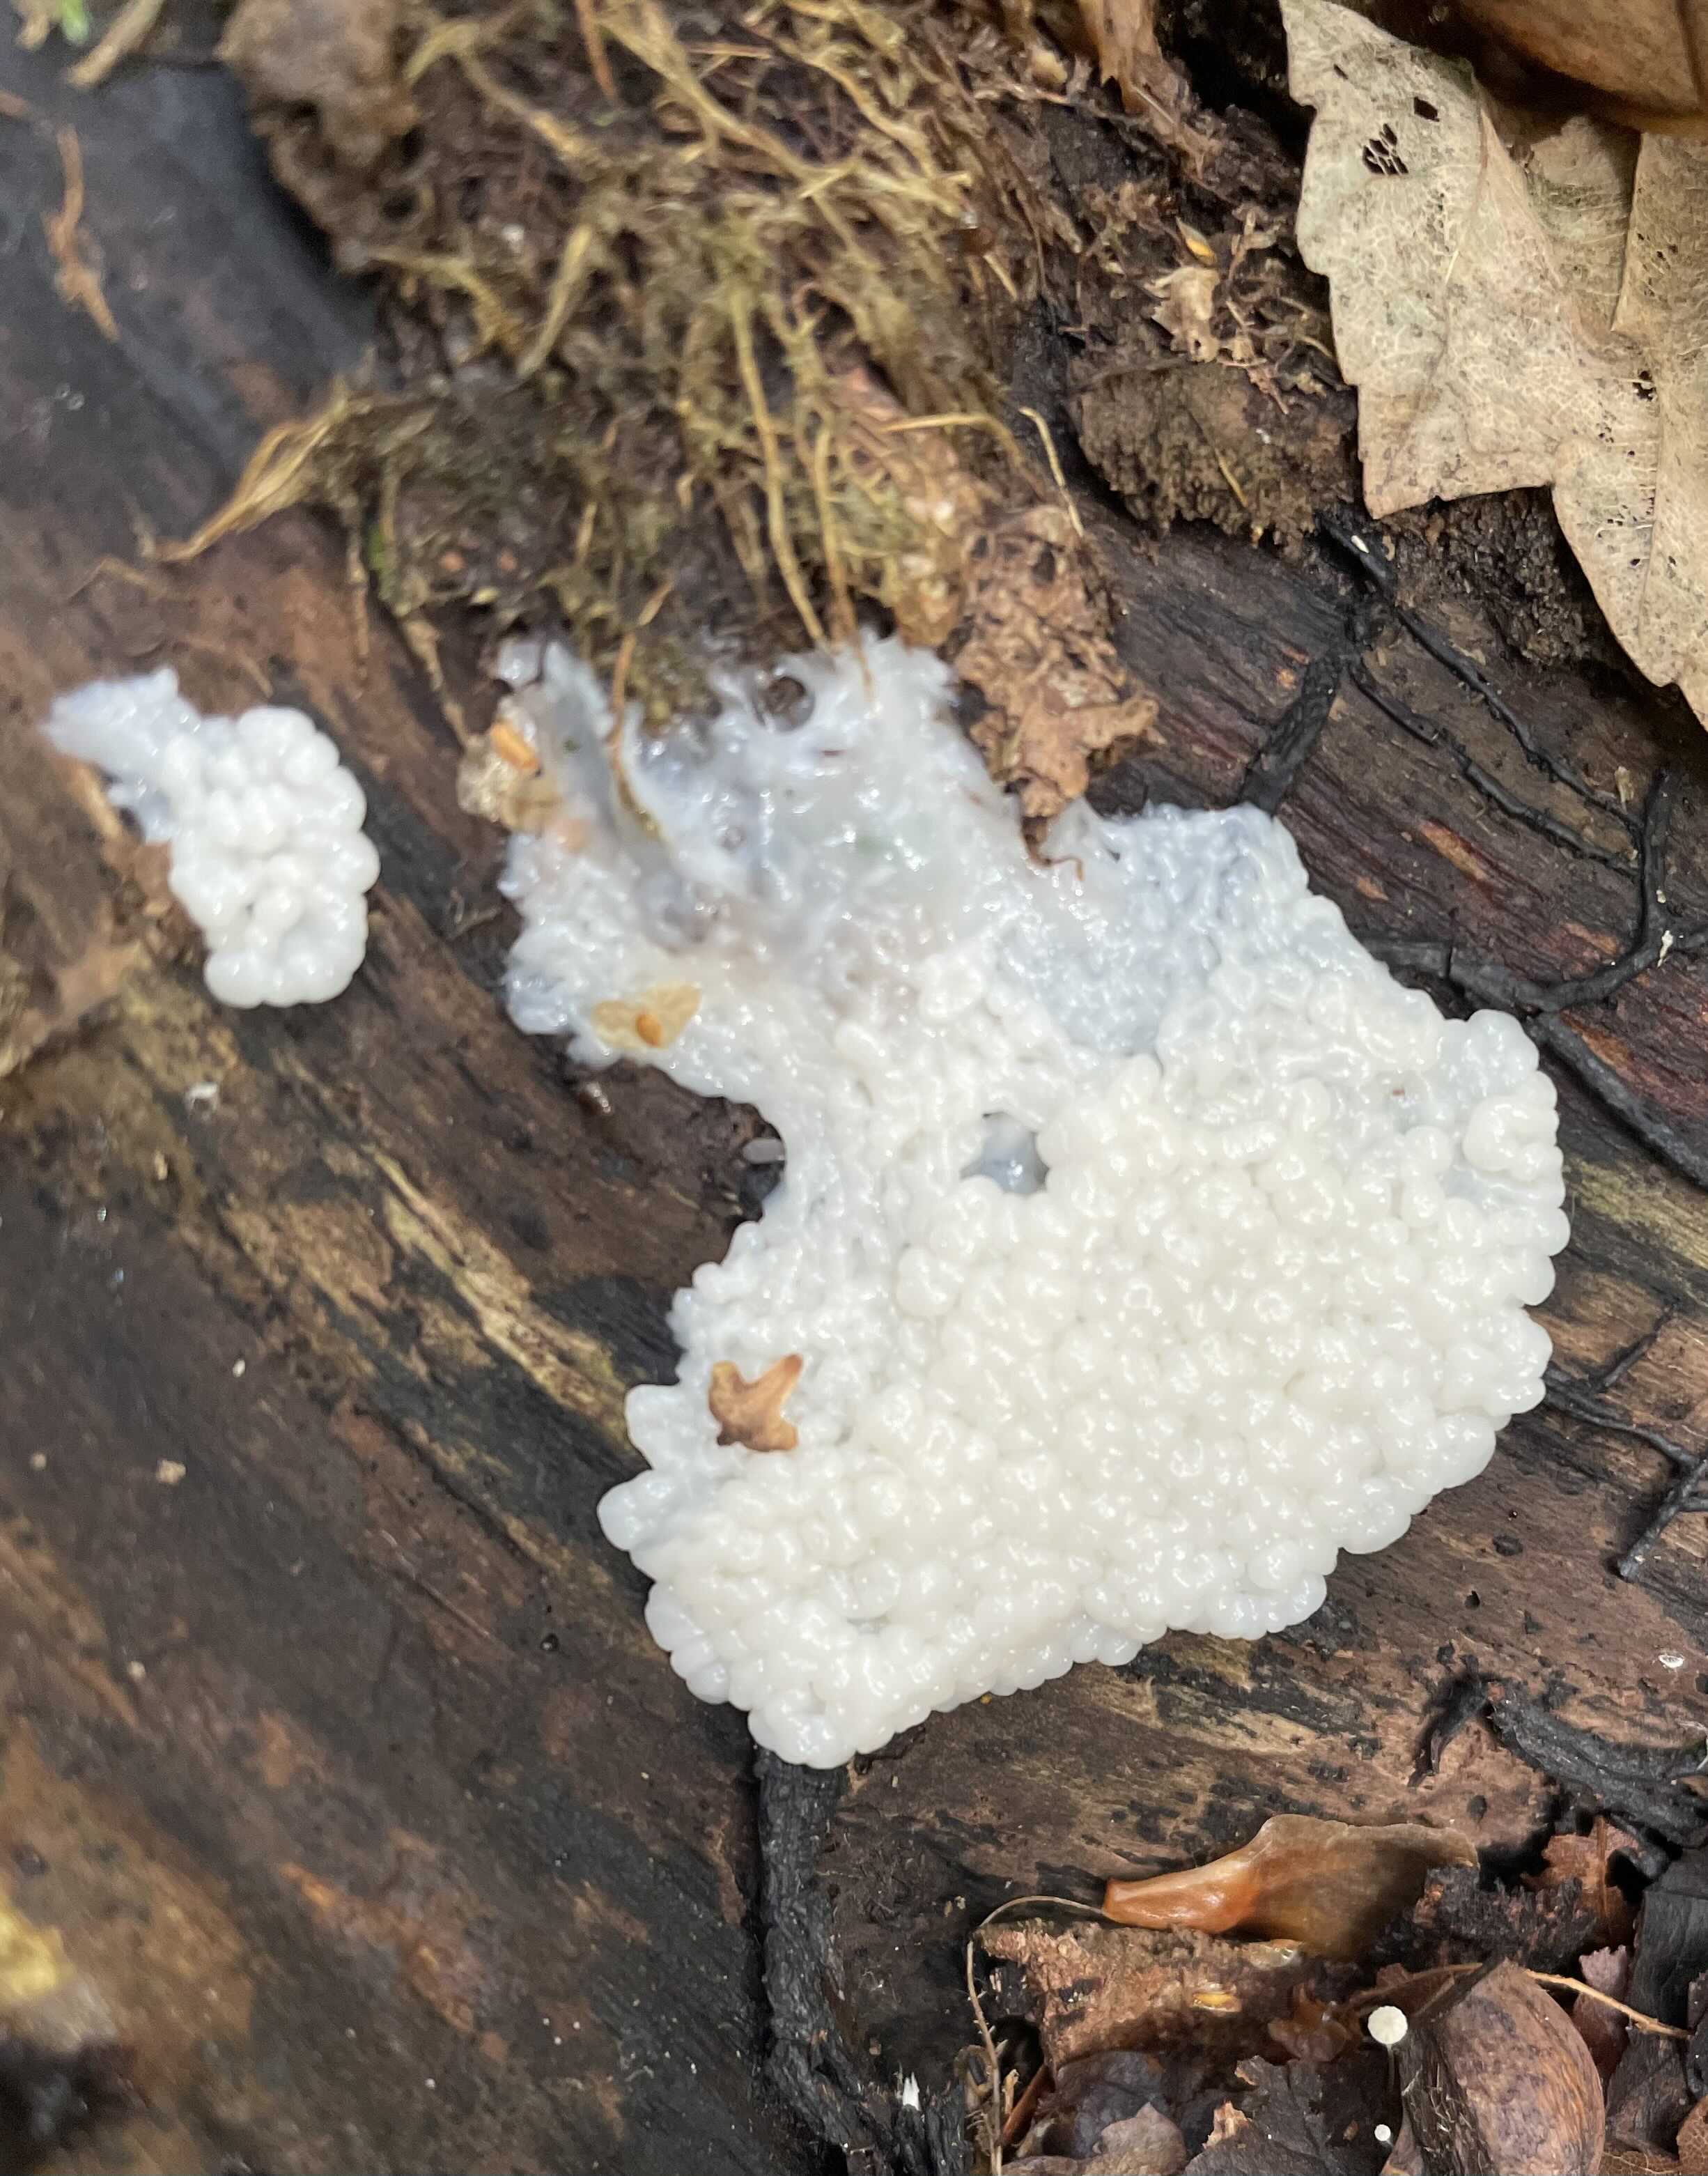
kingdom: Protozoa
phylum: Mycetozoa
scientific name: Mycetozoa
